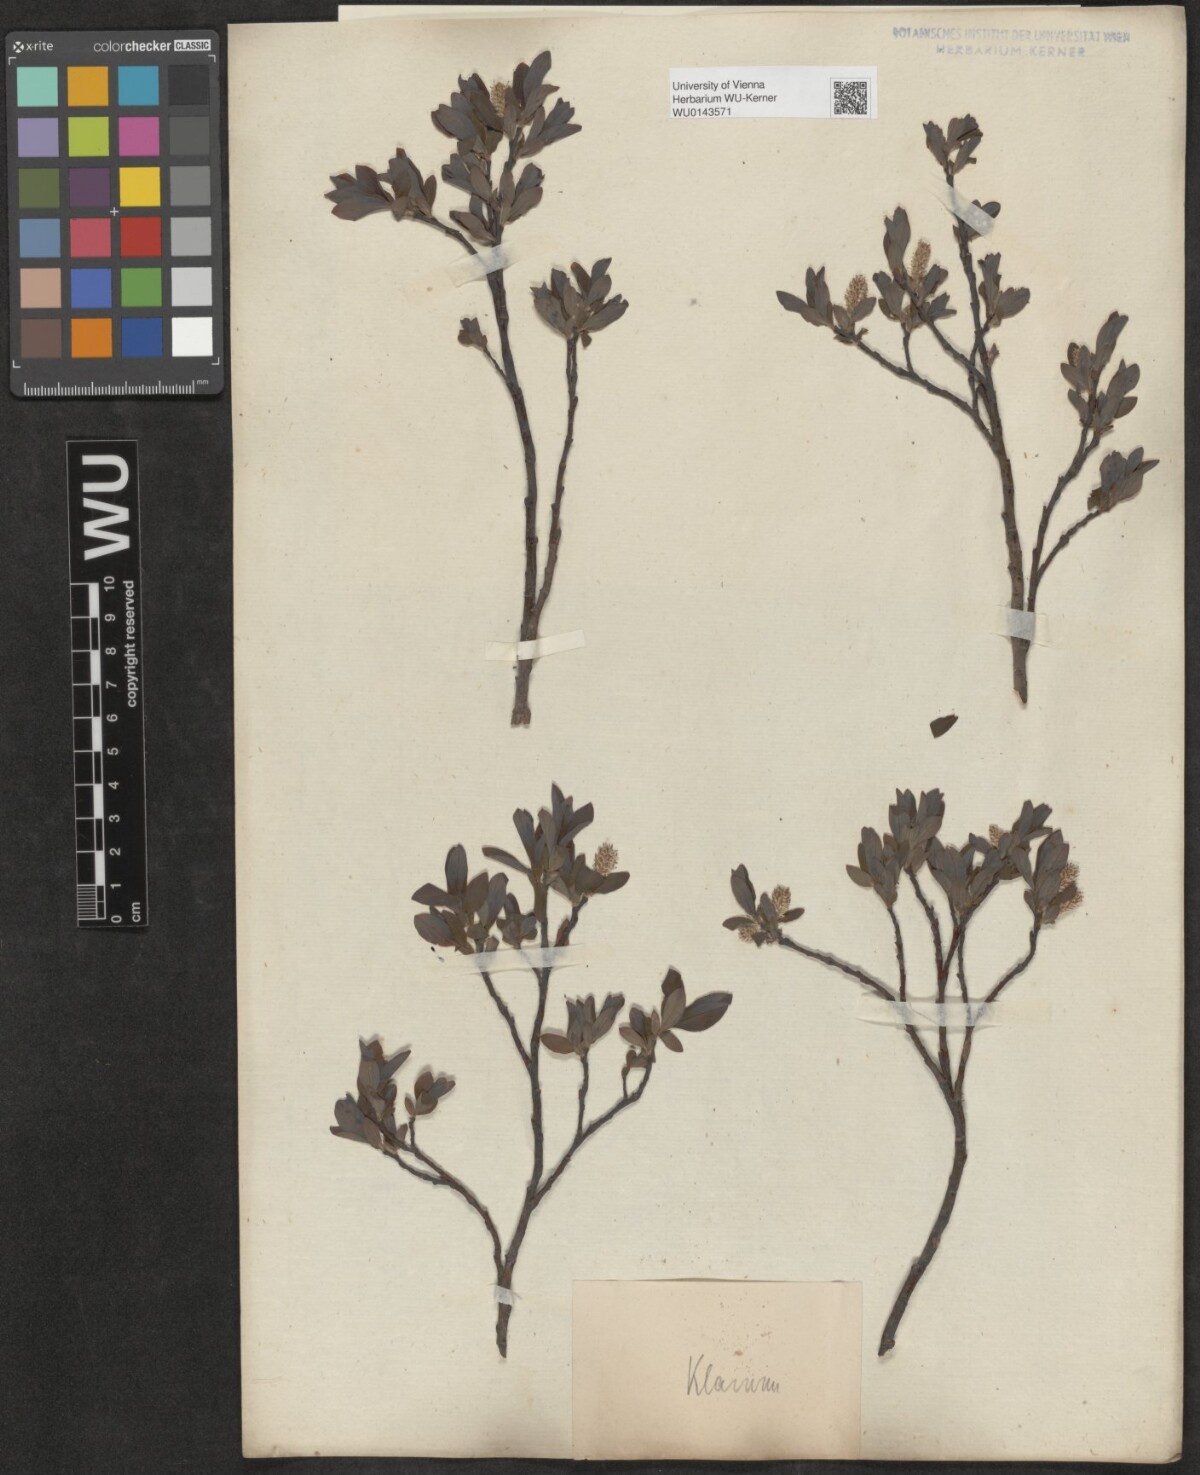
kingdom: Plantae
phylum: Tracheophyta
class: Magnoliopsida
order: Malpighiales
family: Salicaceae
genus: Salix
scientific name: Salix waldsteiniana
